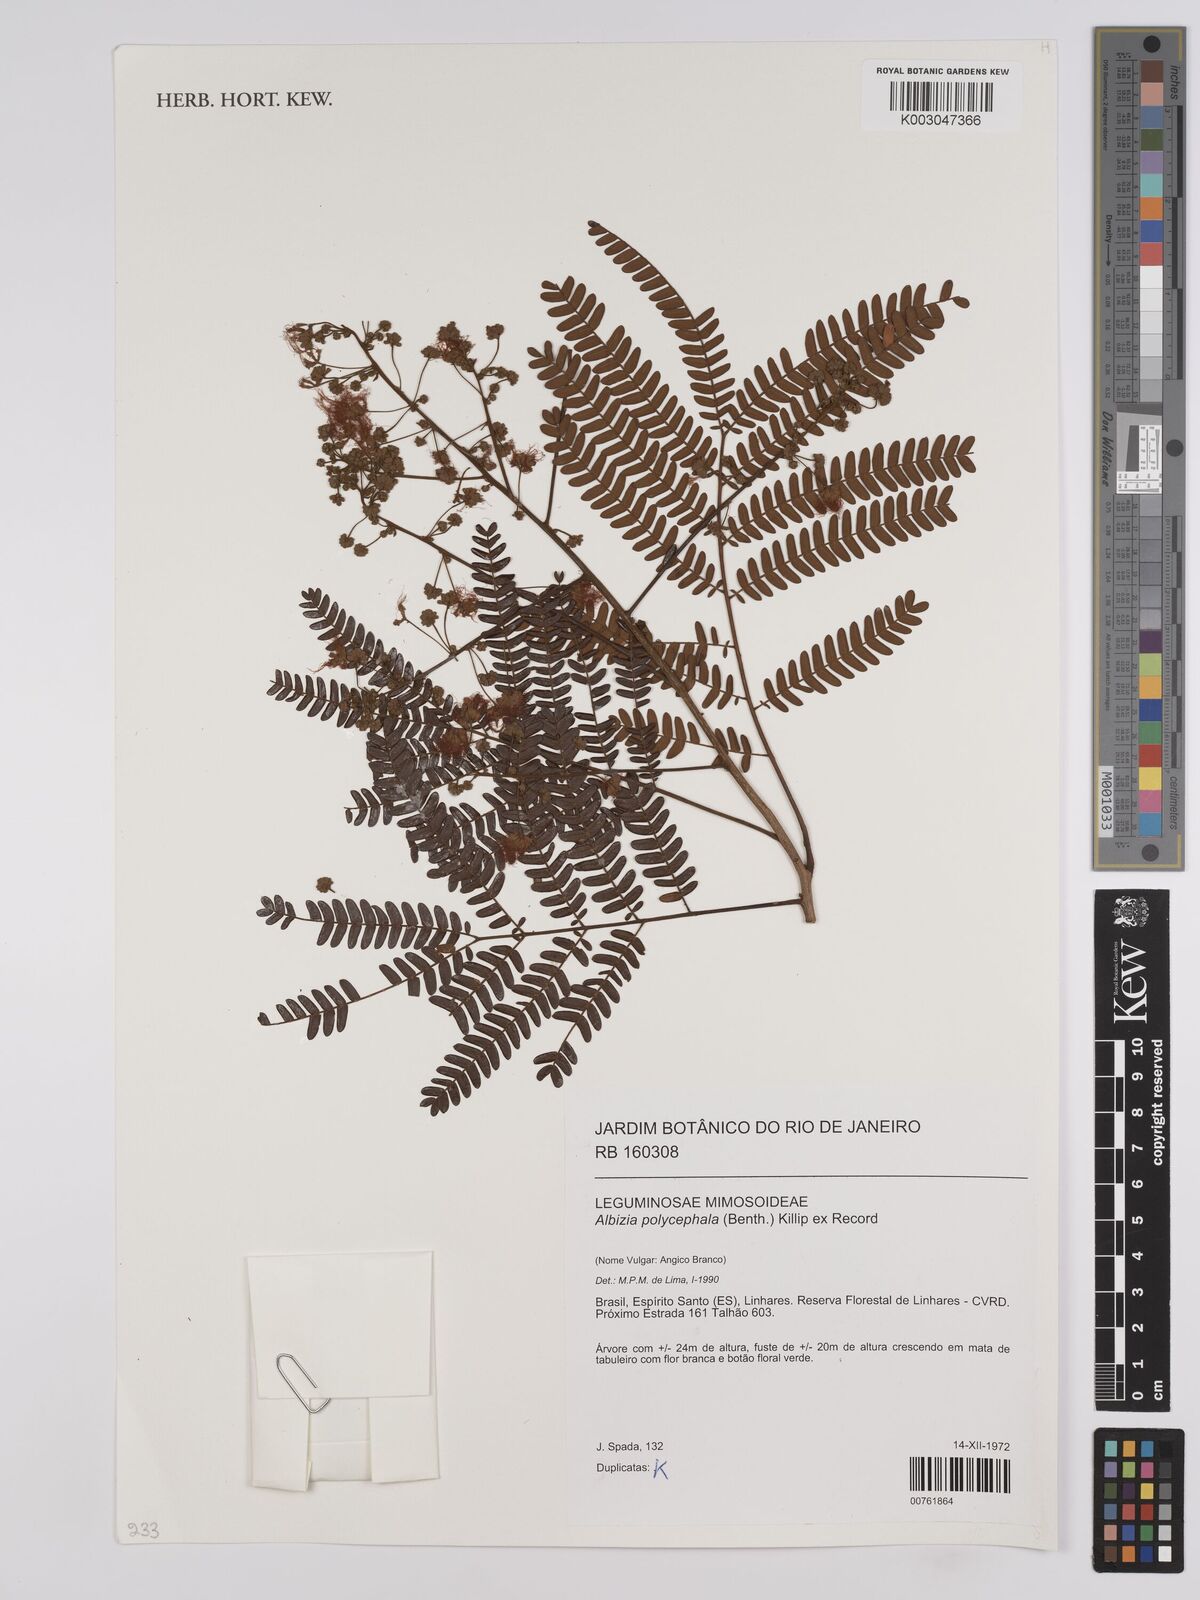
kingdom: Plantae
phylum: Tracheophyta
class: Magnoliopsida
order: Fabales
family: Fabaceae
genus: Albizia
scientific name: Albizia polycephala
